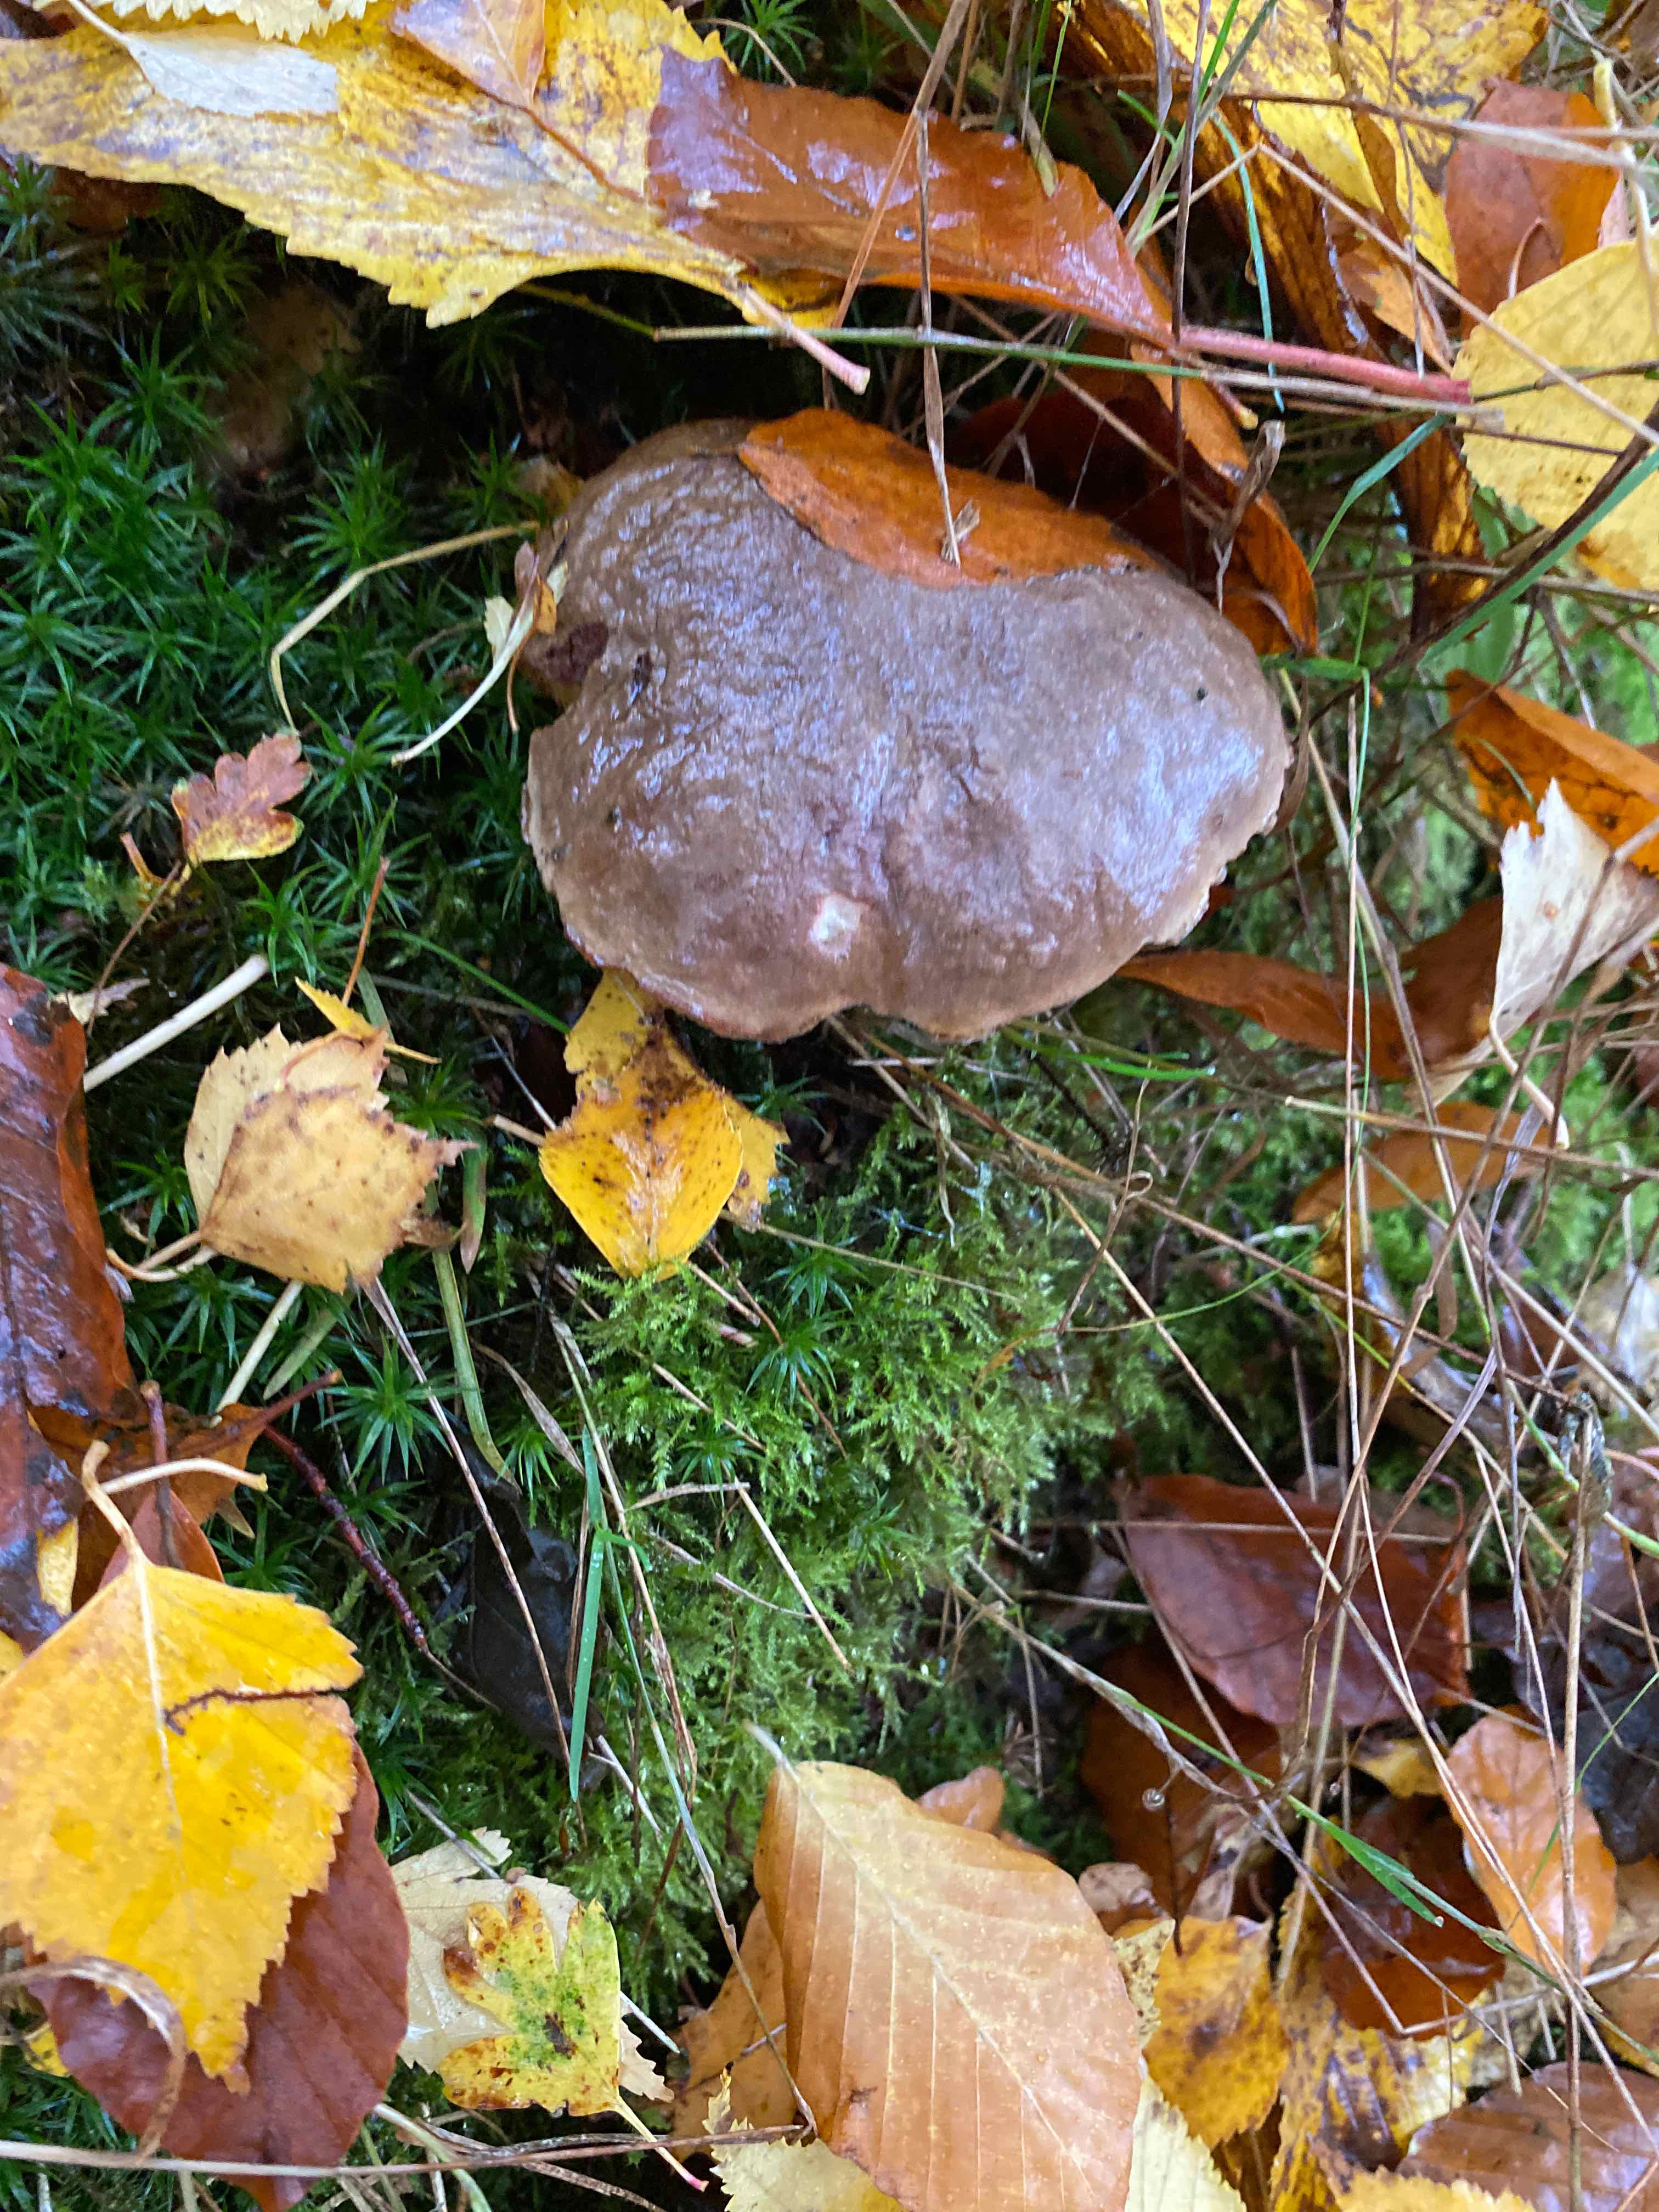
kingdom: Fungi
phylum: Basidiomycota
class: Agaricomycetes
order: Boletales
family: Boletaceae
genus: Xerocomellus
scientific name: Xerocomellus pruinatus
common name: dugget rørhat
